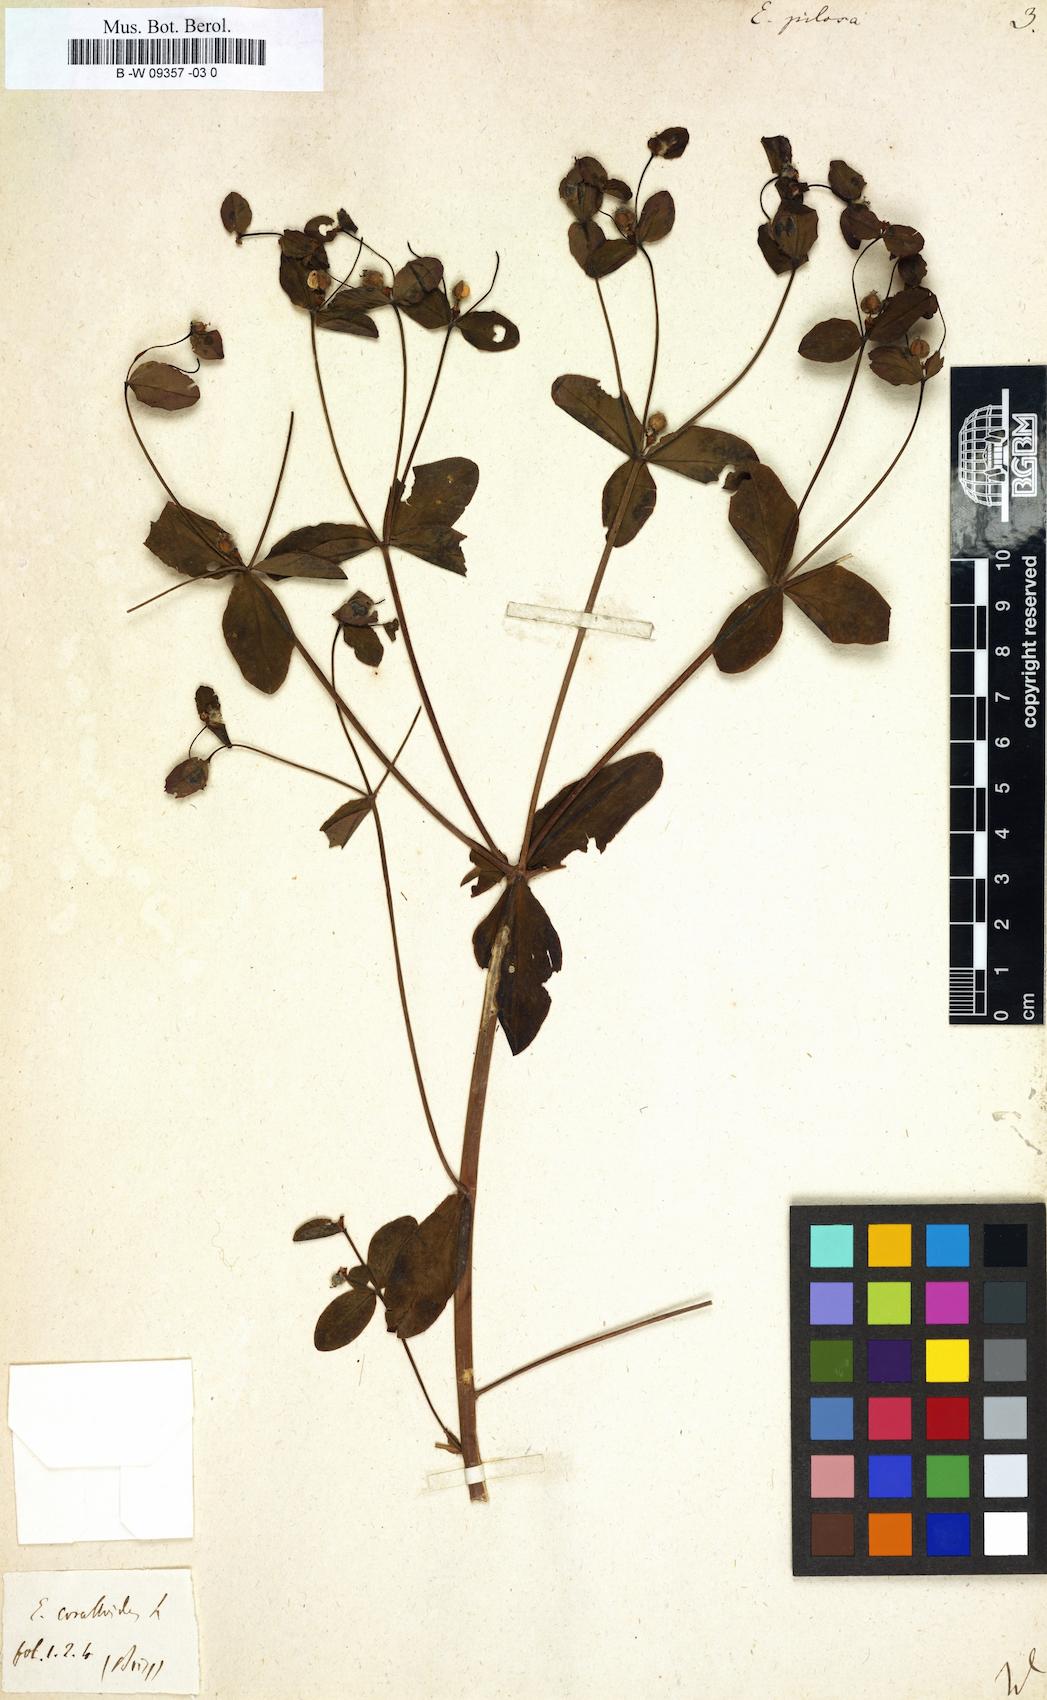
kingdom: Plantae
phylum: Tracheophyta
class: Magnoliopsida
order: Malpighiales
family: Euphorbiaceae
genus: Euphorbia
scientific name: Euphorbia pilosa
